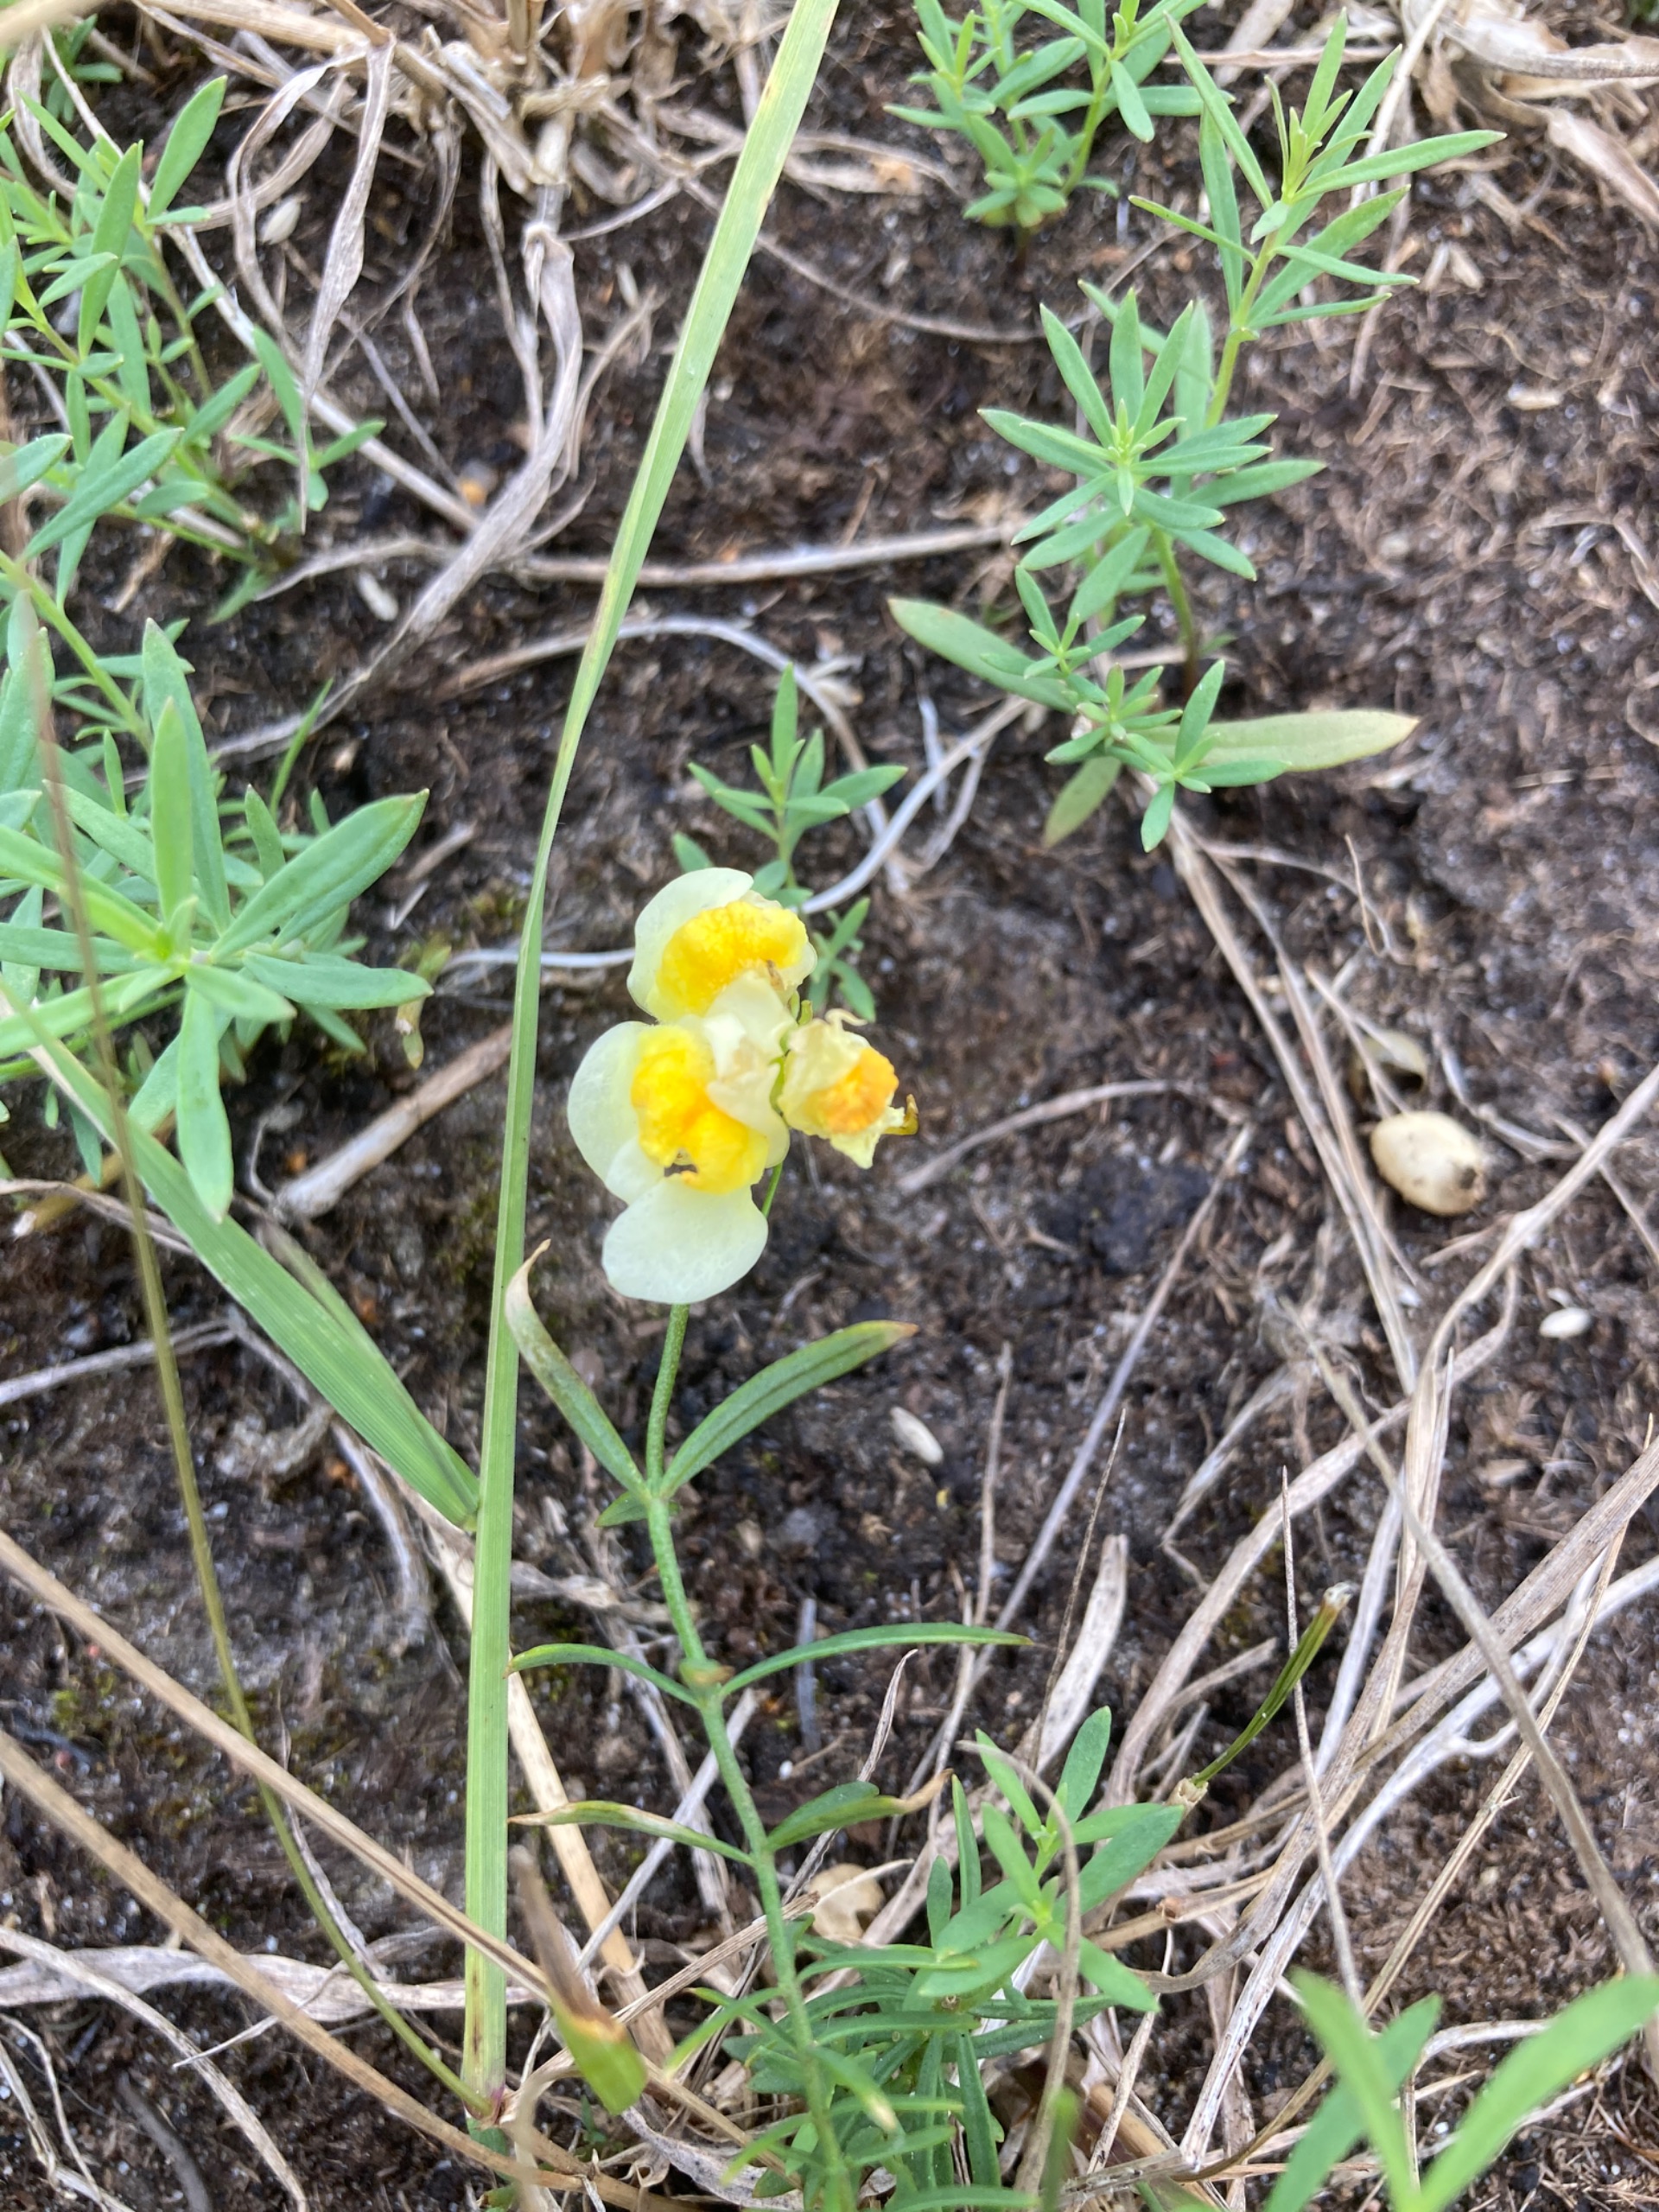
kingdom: Plantae
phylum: Tracheophyta
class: Magnoliopsida
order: Lamiales
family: Plantaginaceae
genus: Linaria
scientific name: Linaria vulgaris
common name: Almindelig torskemund
